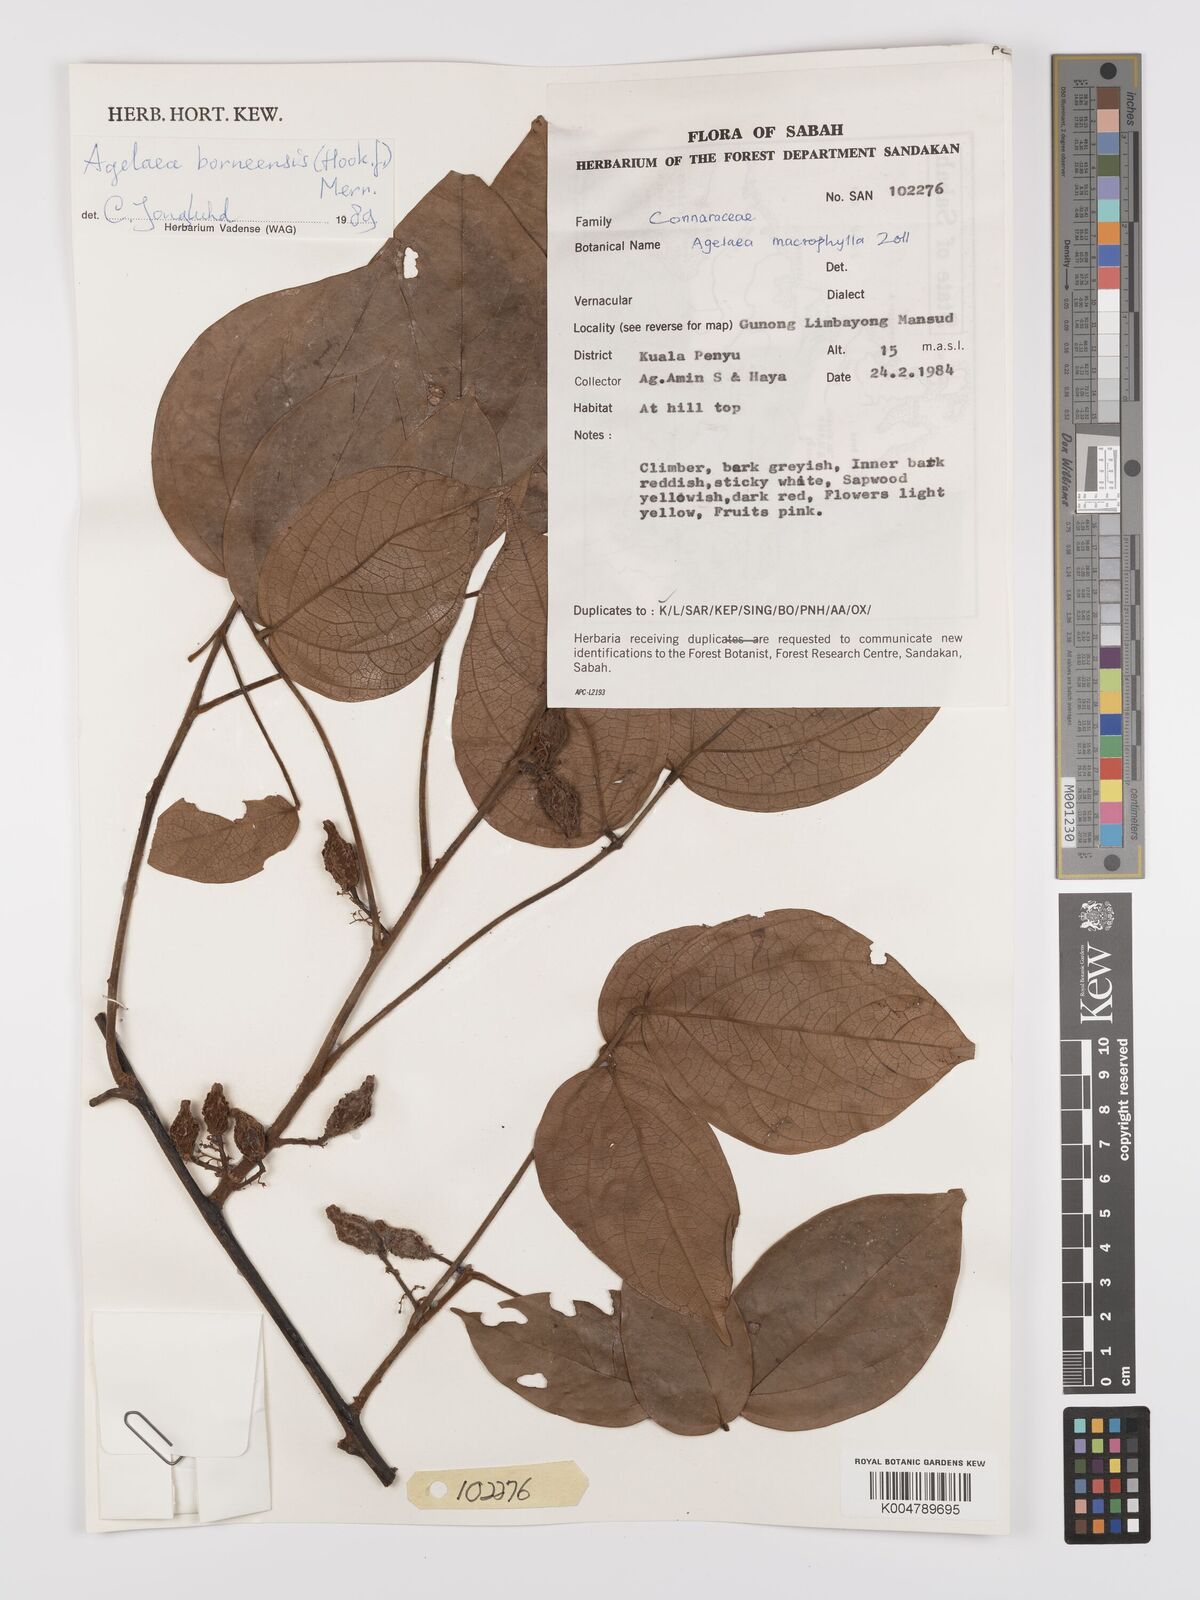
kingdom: Plantae
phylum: Tracheophyta
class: Magnoliopsida
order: Oxalidales
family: Connaraceae
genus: Agelaea
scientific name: Agelaea borneensis
